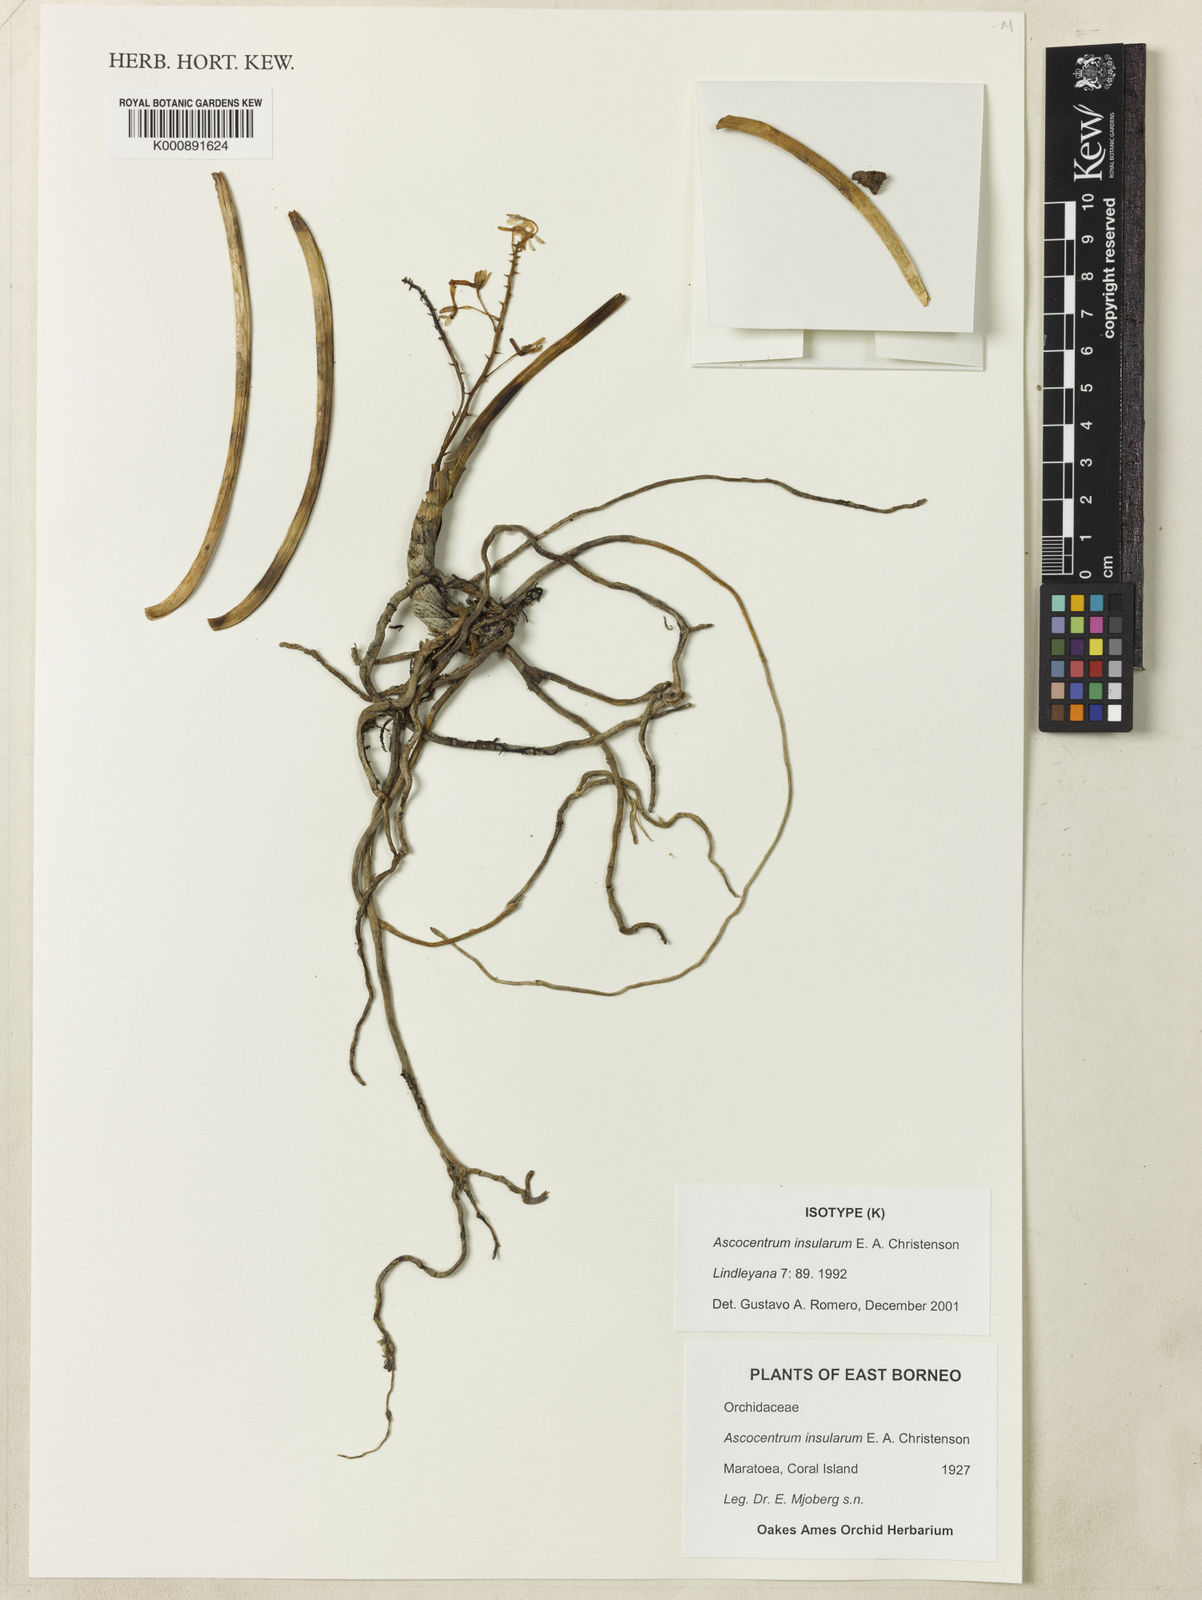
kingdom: Plantae
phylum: Tracheophyta
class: Liliopsida
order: Asparagales
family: Orchidaceae
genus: Vanda
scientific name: Vanda insularum
